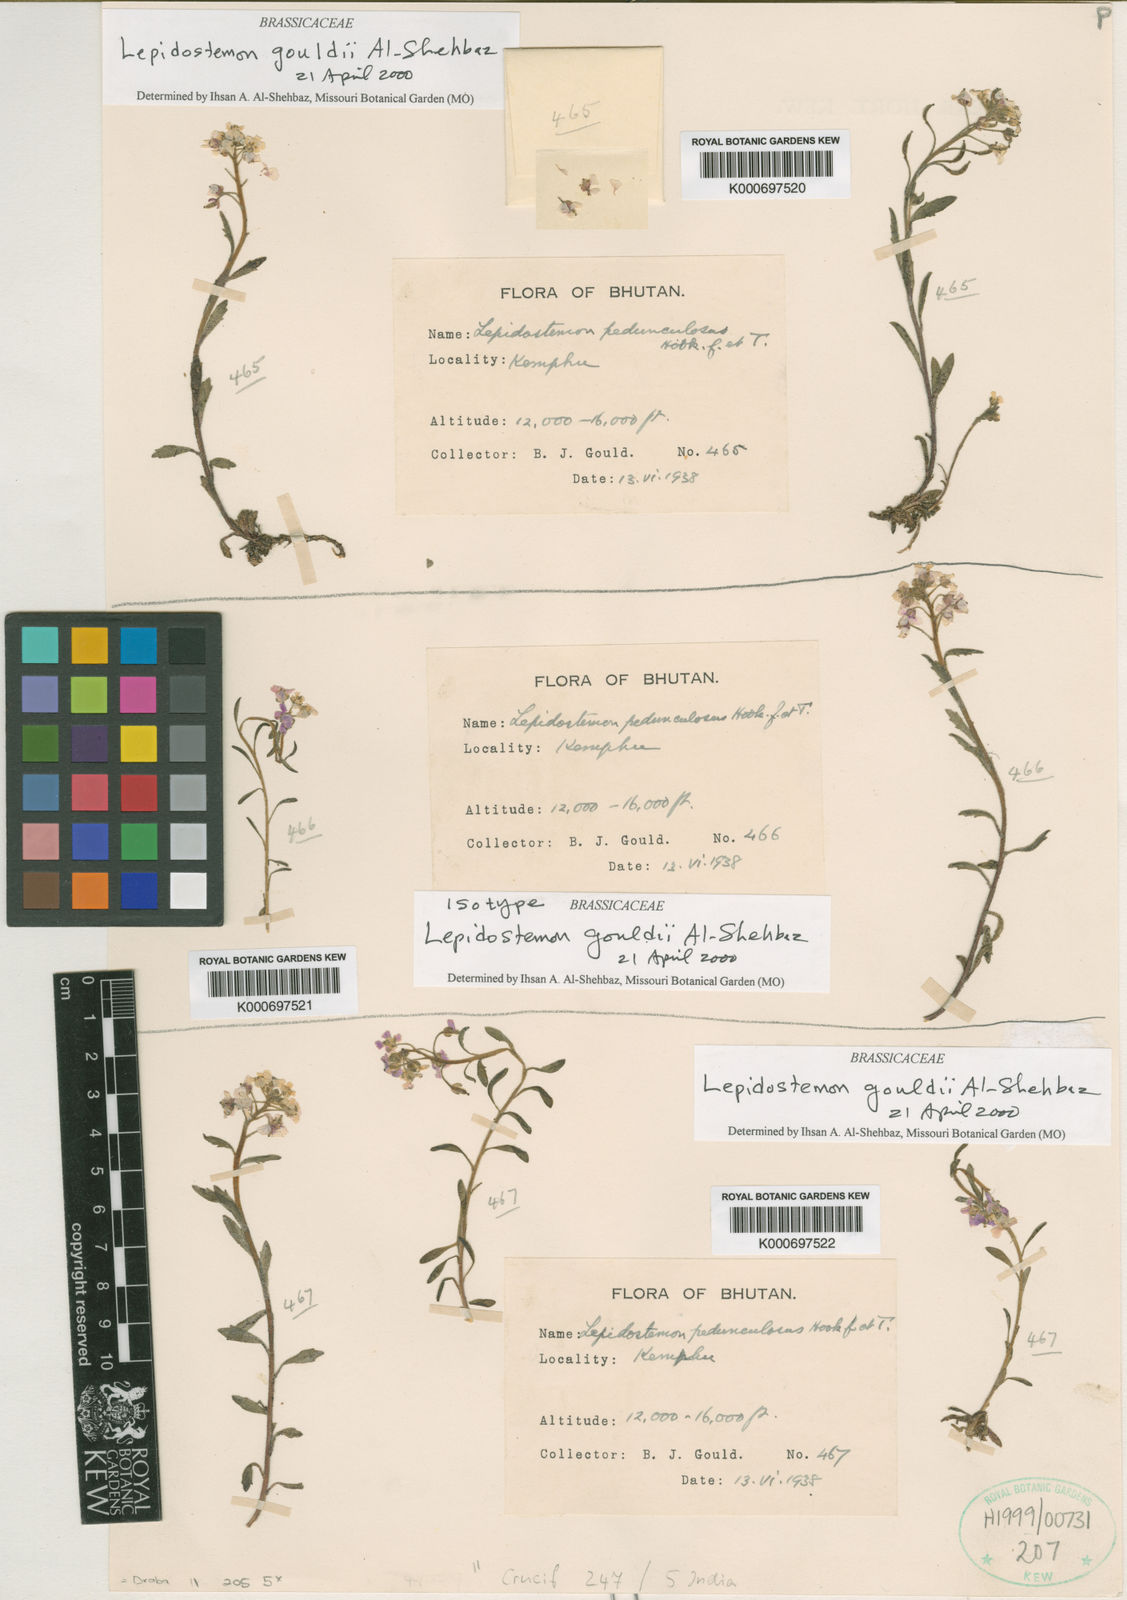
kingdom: Plantae
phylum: Tracheophyta
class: Magnoliopsida
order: Brassicales
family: Brassicaceae
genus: Draba
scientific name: Draba
